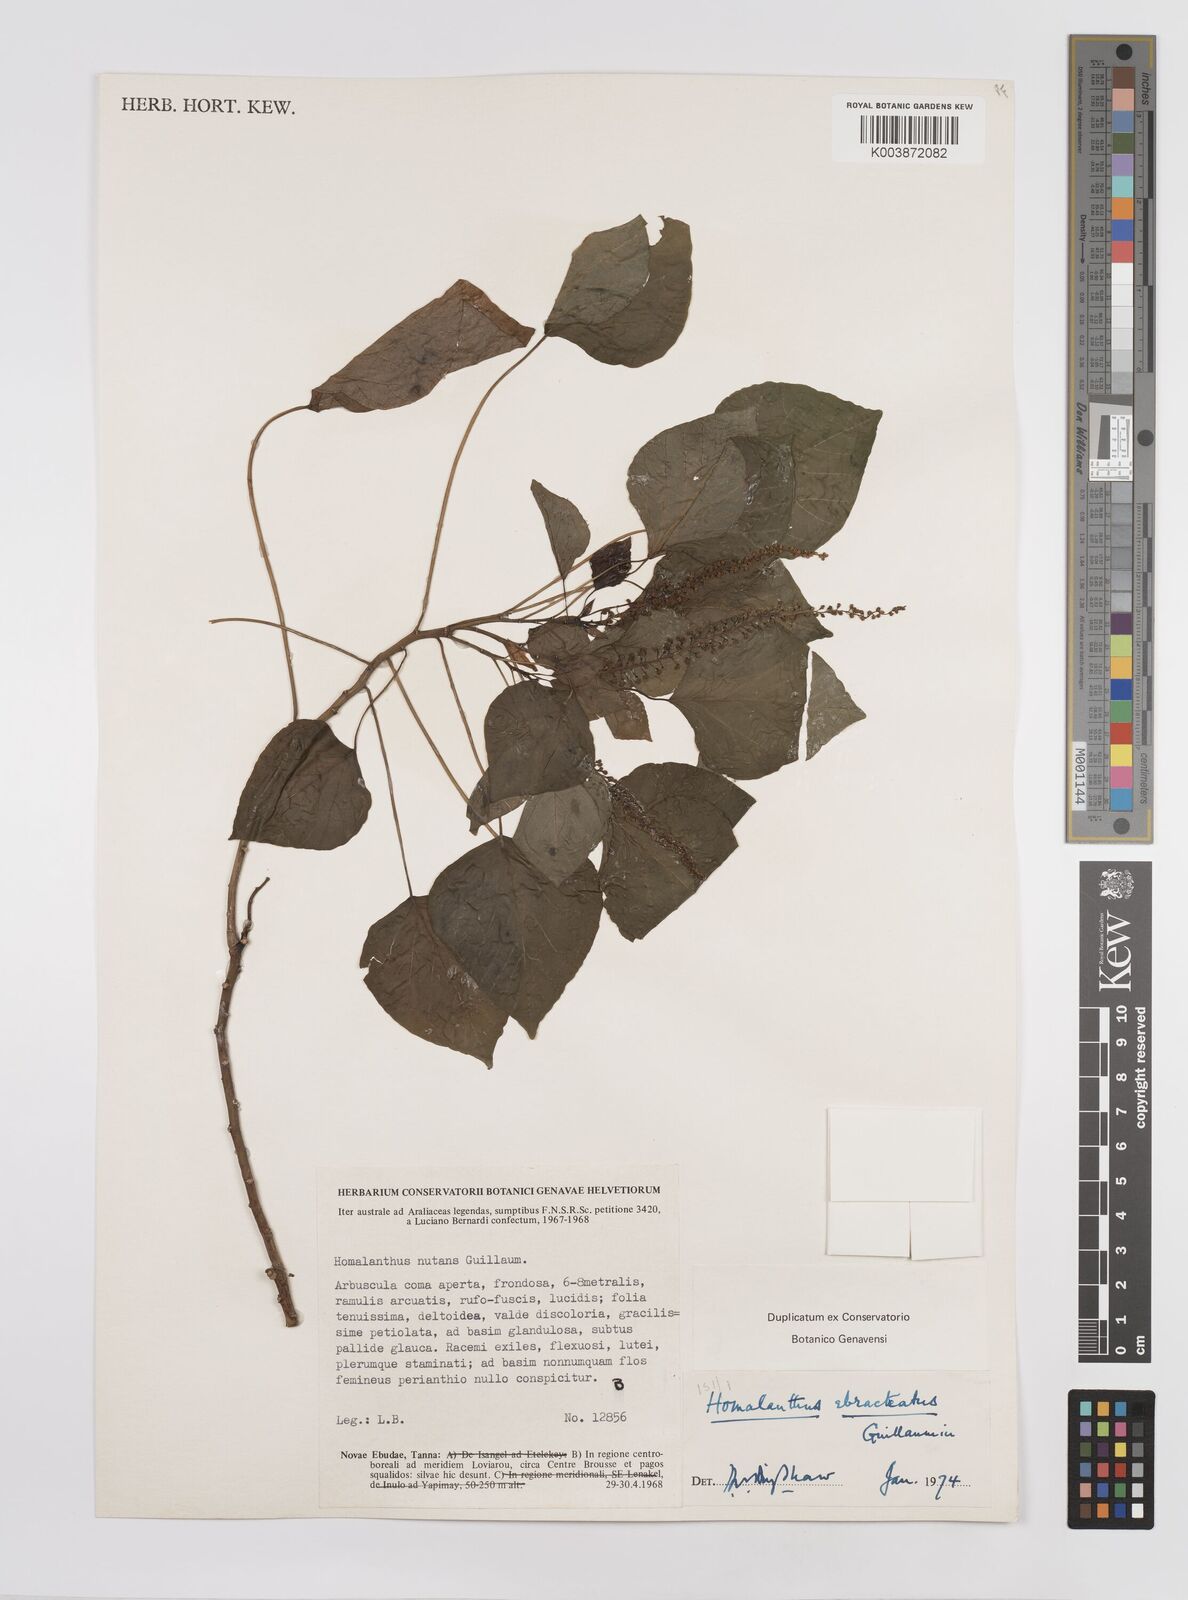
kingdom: Plantae
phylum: Tracheophyta
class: Magnoliopsida
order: Malpighiales
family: Euphorbiaceae
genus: Homalanthus
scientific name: Homalanthus ebracteatua
